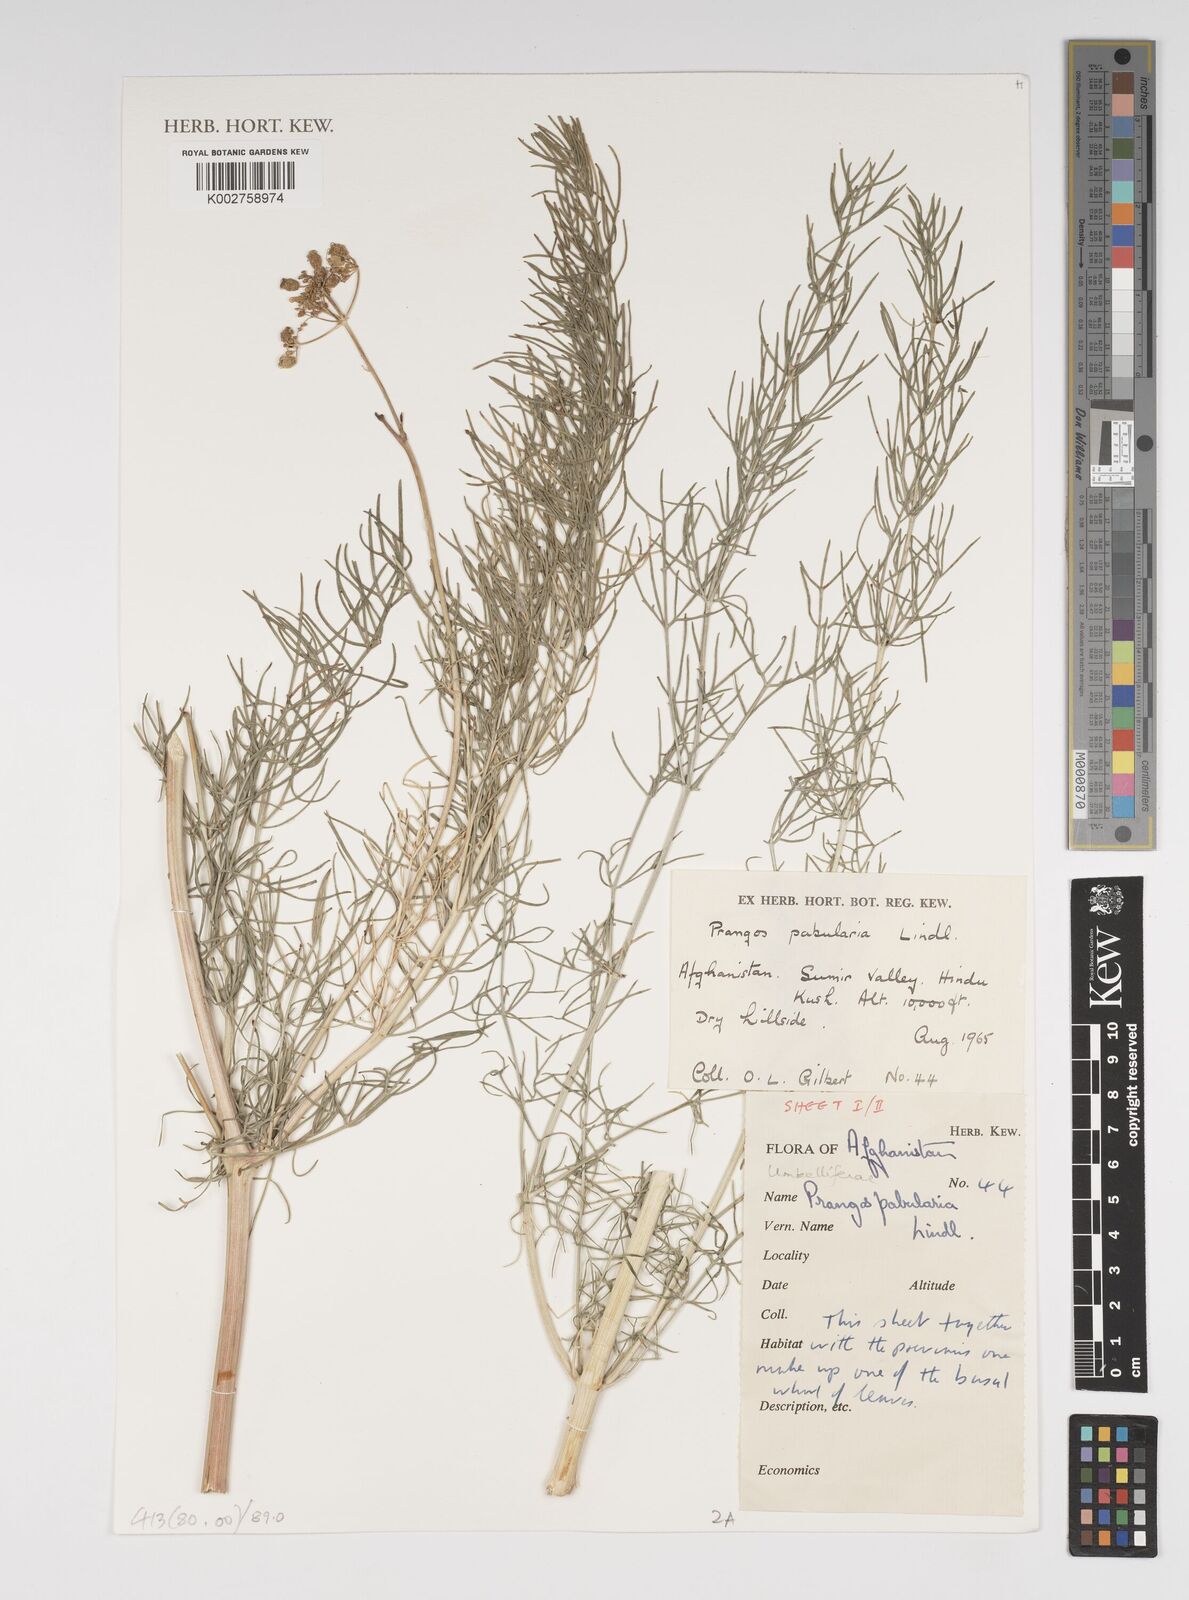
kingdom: Plantae
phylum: Tracheophyta
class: Magnoliopsida
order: Apiales
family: Apiaceae
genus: Prangos
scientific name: Prangos pabularia
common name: Yugan
